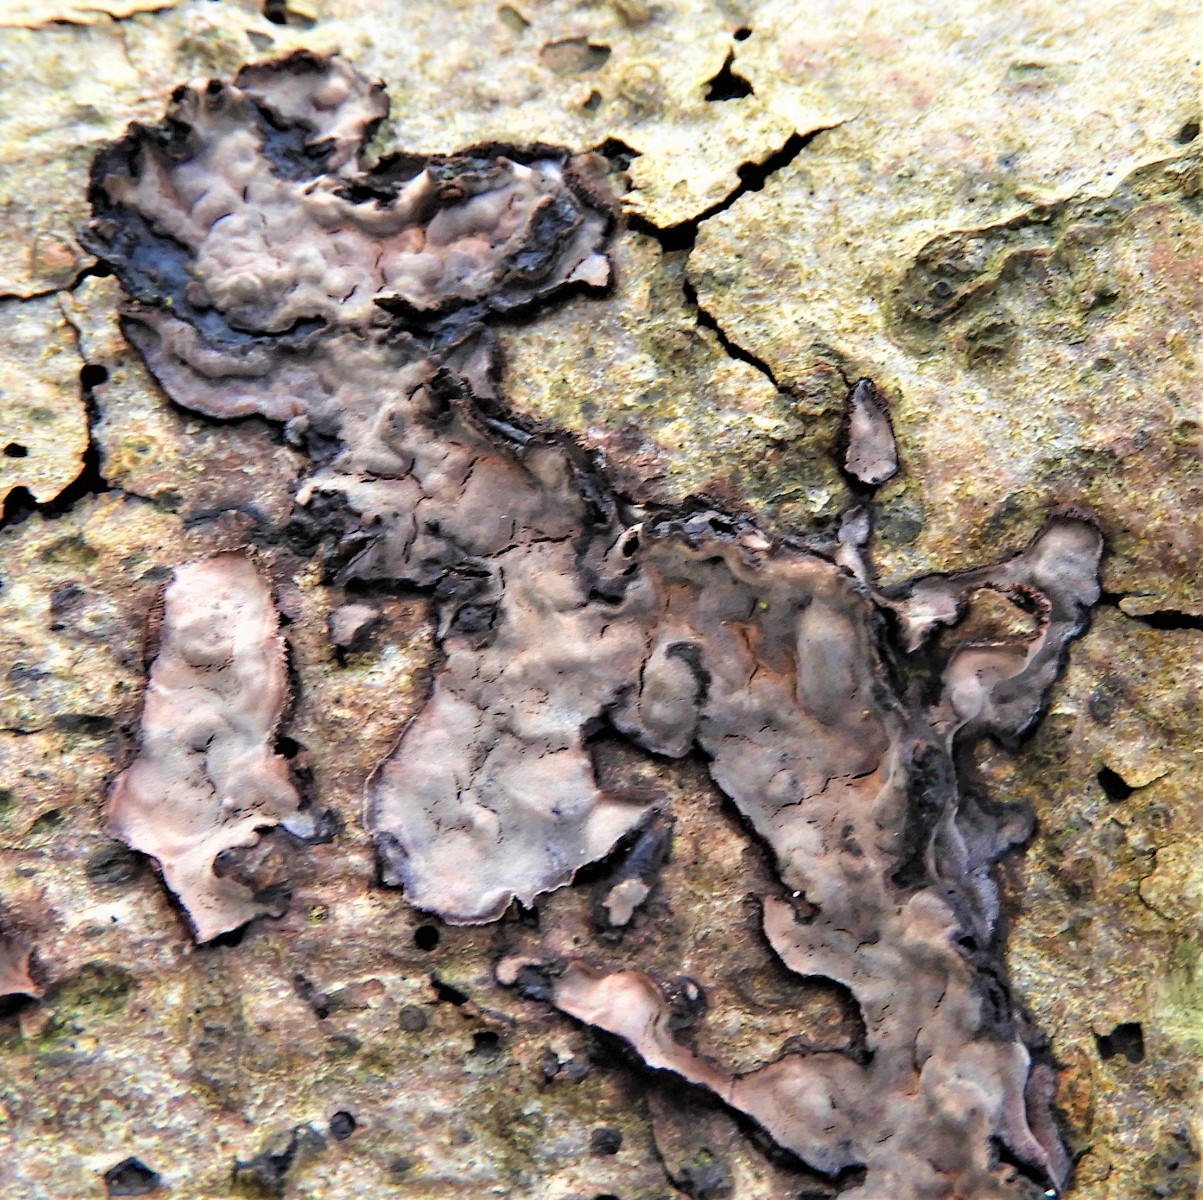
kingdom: Fungi
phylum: Basidiomycota
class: Agaricomycetes
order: Russulales
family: Peniophoraceae
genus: Peniophora
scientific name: Peniophora limitata
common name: mørkrandet voksskind
